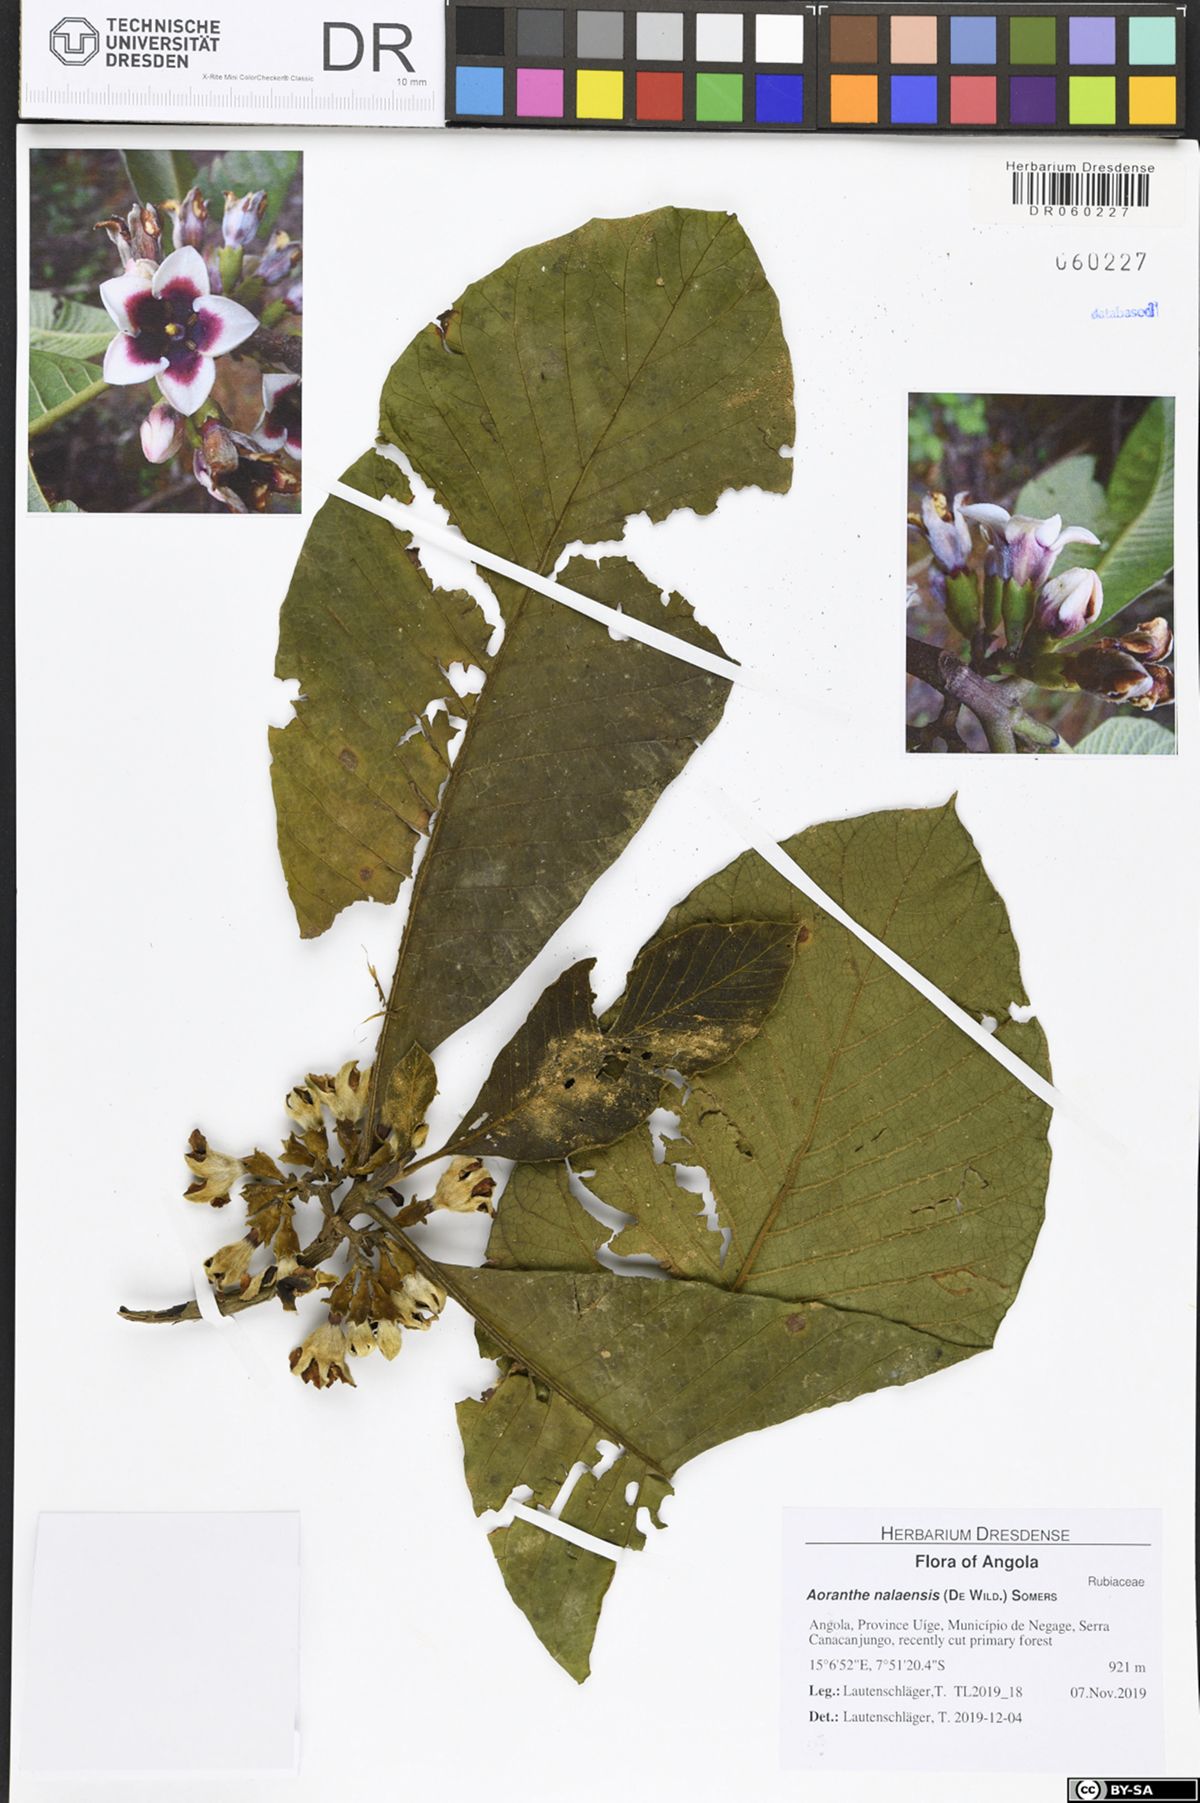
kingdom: Plantae
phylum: Tracheophyta
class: Magnoliopsida
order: Gentianales
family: Rubiaceae
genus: Aoranthe
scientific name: Aoranthe nalaensis
